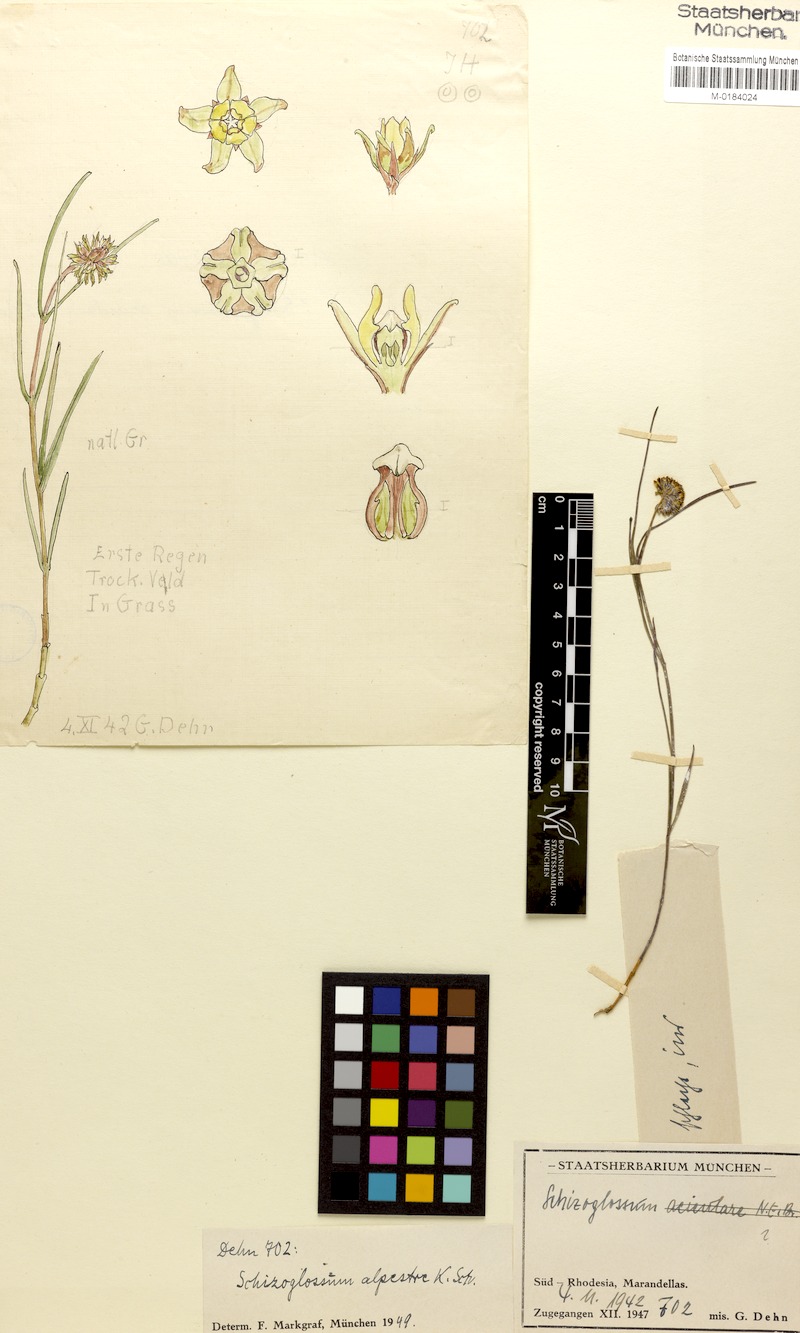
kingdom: Plantae
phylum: Tracheophyta
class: Magnoliopsida
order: Gentianales
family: Apocynaceae
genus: Asclepias
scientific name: Asclepias alpestris
